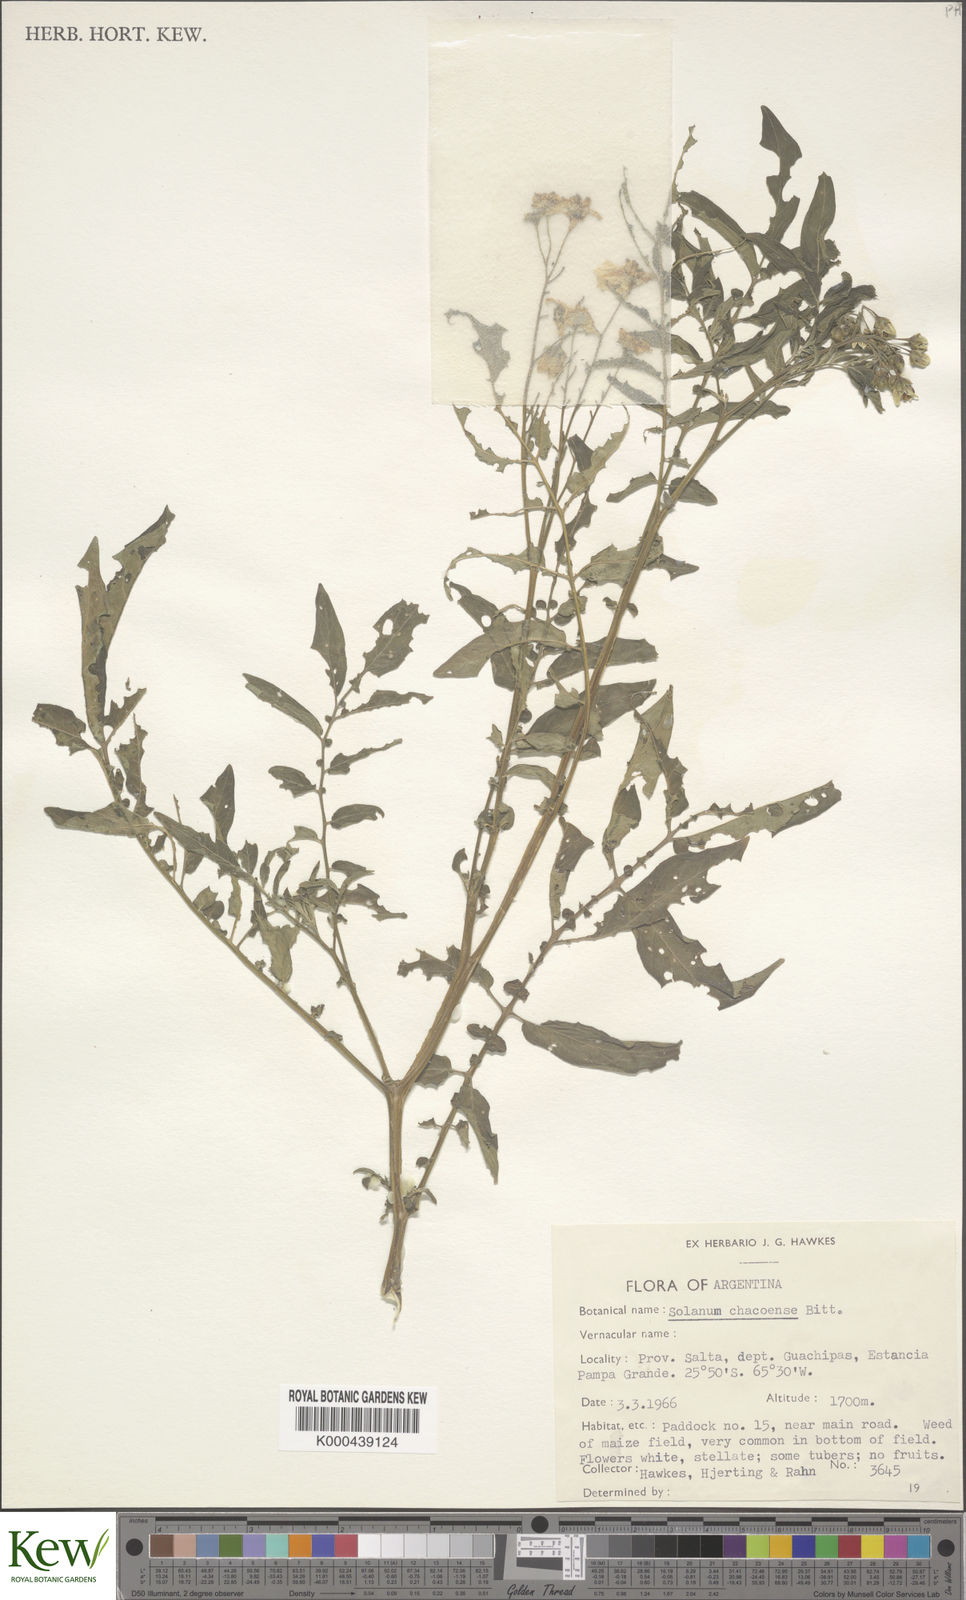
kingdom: Plantae
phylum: Tracheophyta
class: Magnoliopsida
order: Solanales
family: Solanaceae
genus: Solanum
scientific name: Solanum chacoense
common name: Chaco potato
